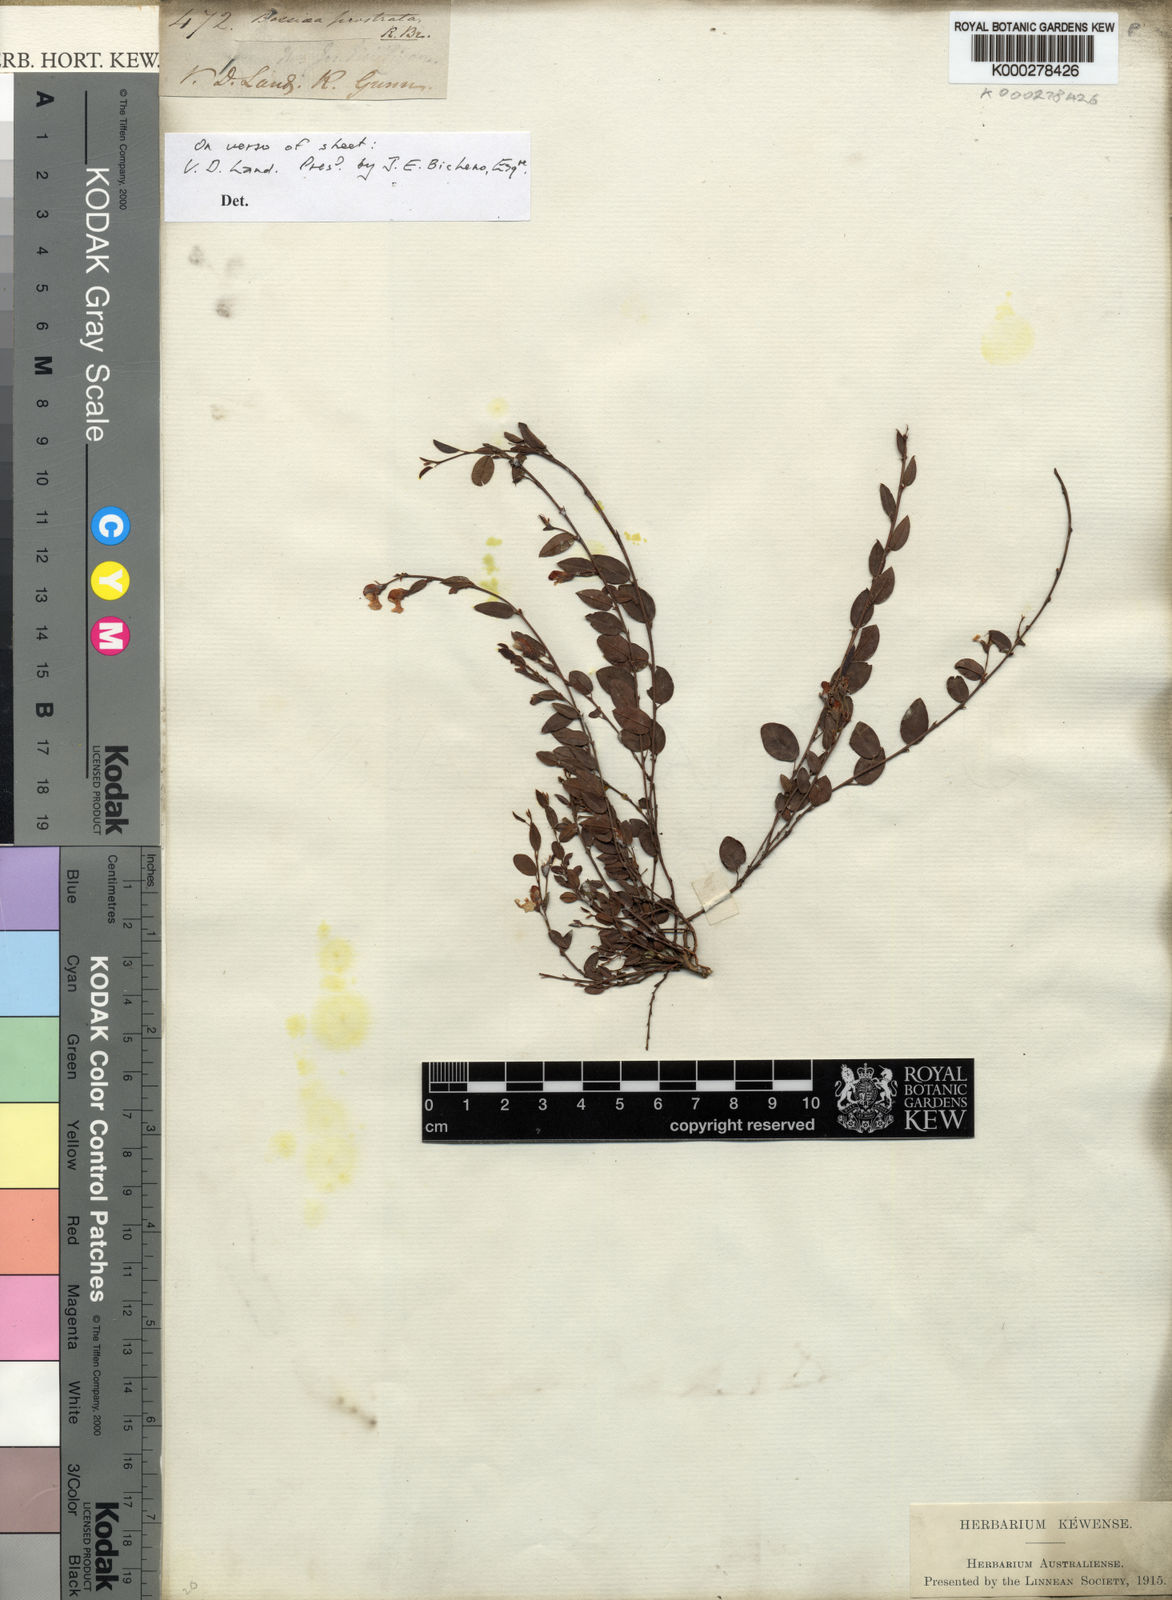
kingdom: Plantae
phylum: Tracheophyta
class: Magnoliopsida
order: Fabales
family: Fabaceae
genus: Bossiaea
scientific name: Bossiaea prostrata
